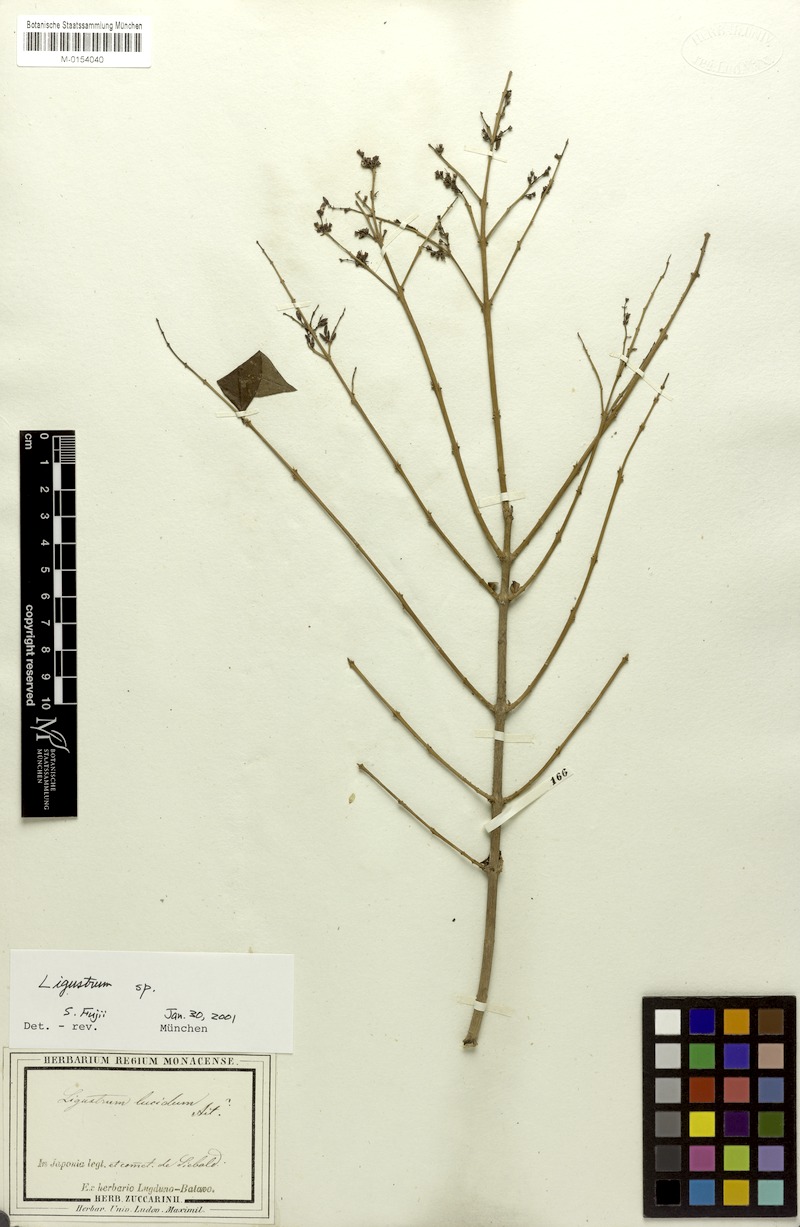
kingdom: Plantae
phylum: Tracheophyta
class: Magnoliopsida
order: Lamiales
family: Oleaceae
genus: Ligustrum
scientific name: Ligustrum lucidum
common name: Glossy privet
